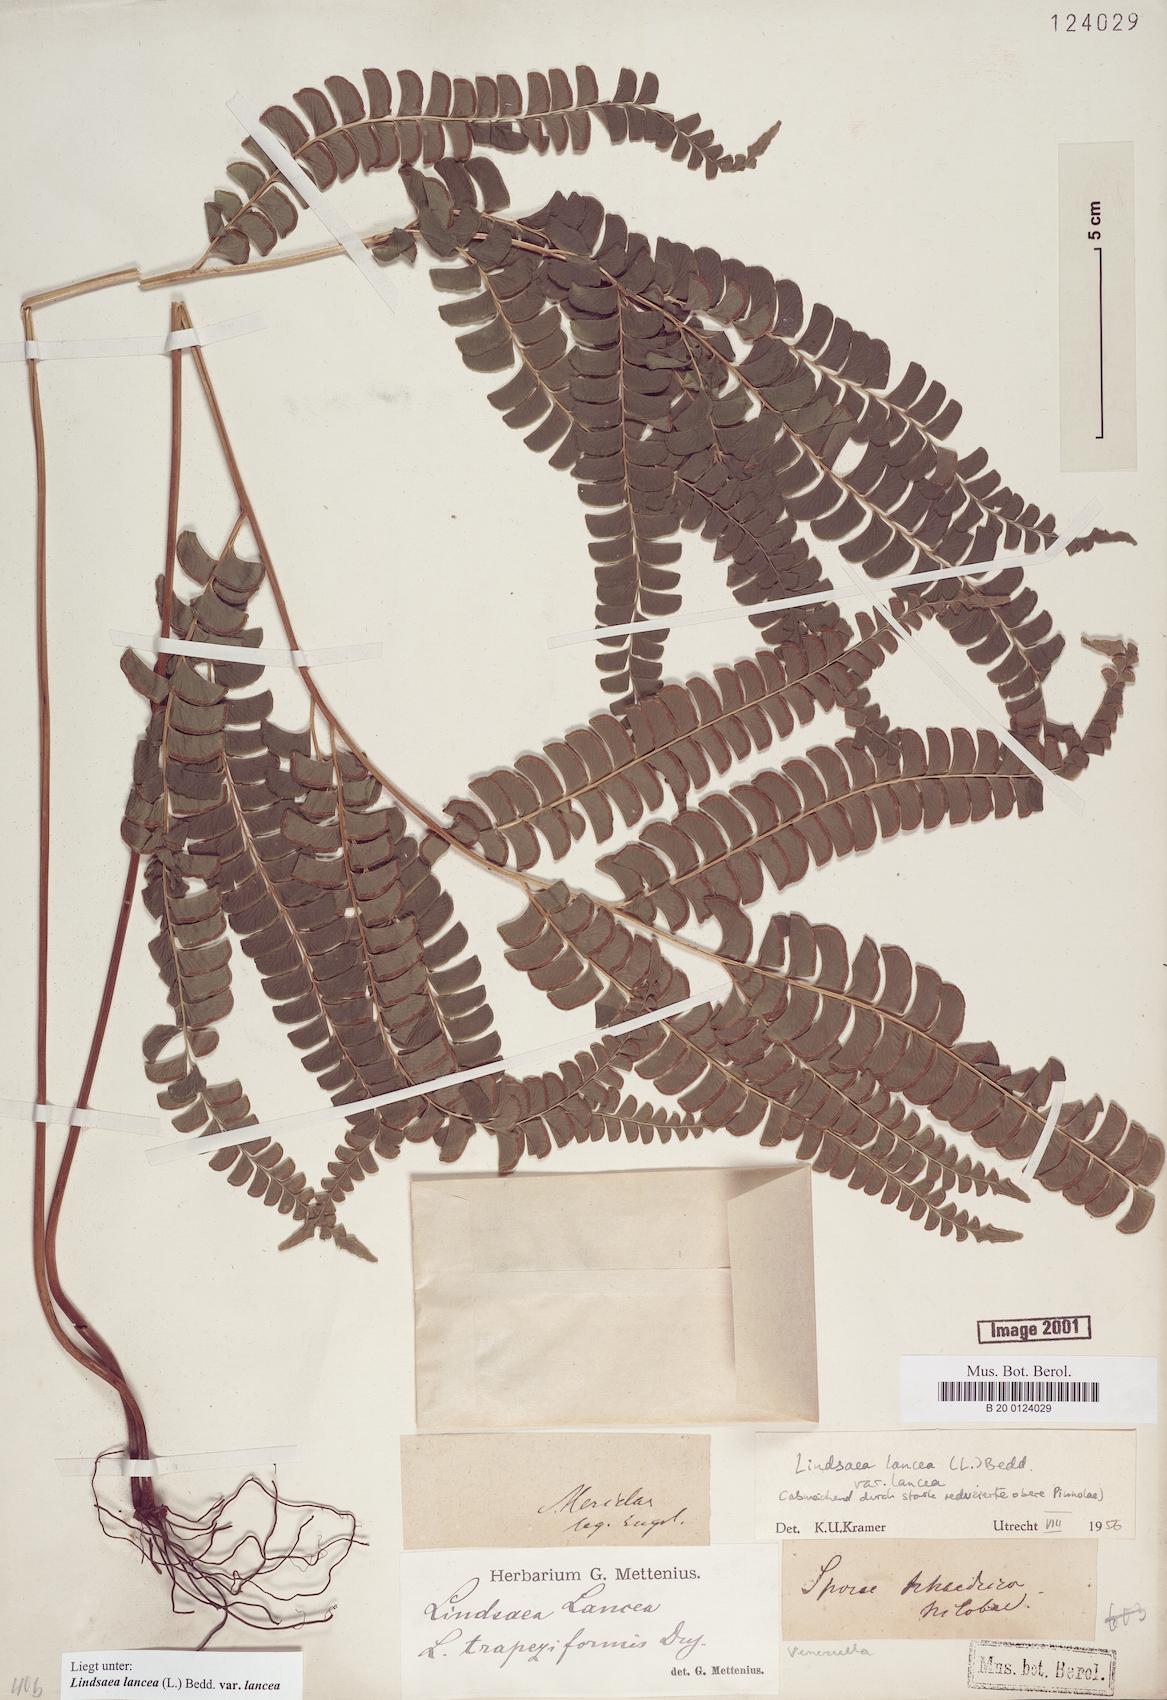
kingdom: Plantae
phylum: Tracheophyta
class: Polypodiopsida
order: Polypodiales
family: Lindsaeaceae
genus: Lindsaea
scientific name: Lindsaea lancea
